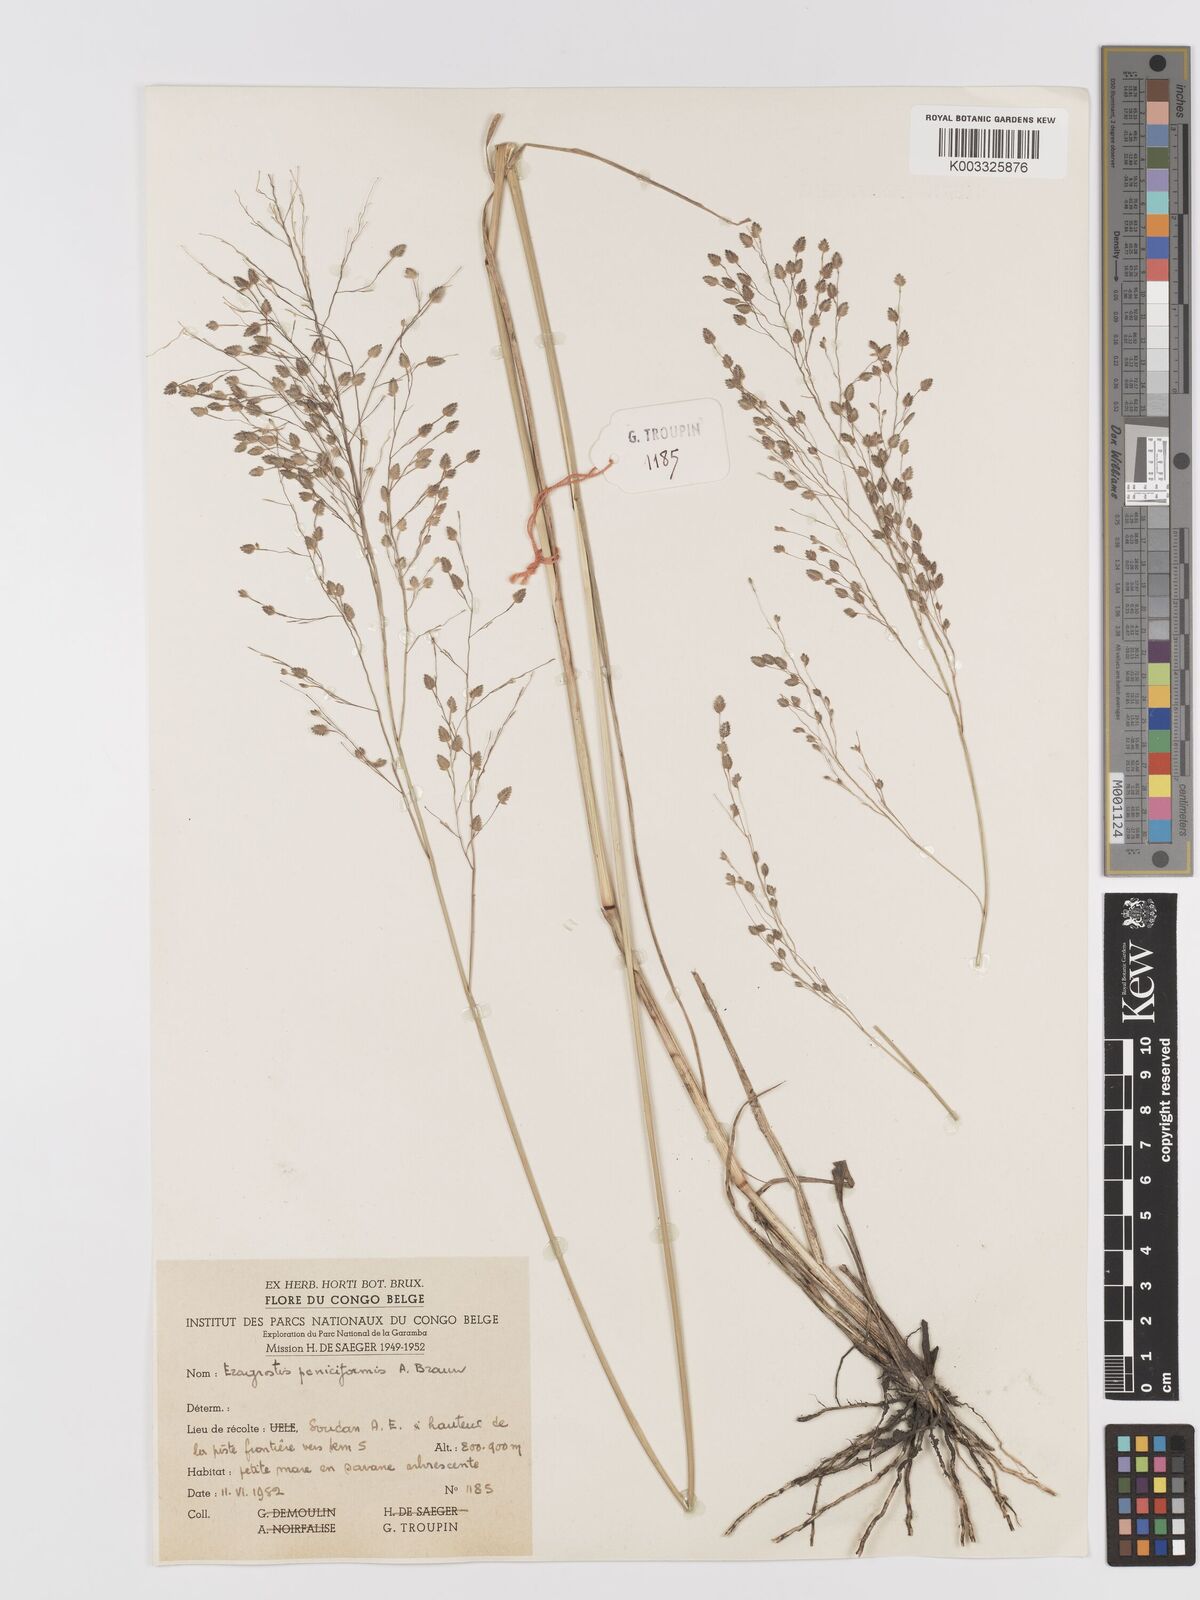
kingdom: Plantae
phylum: Tracheophyta
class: Liliopsida
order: Poales
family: Poaceae
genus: Eragrostis
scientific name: Eragrostis paniciformis
